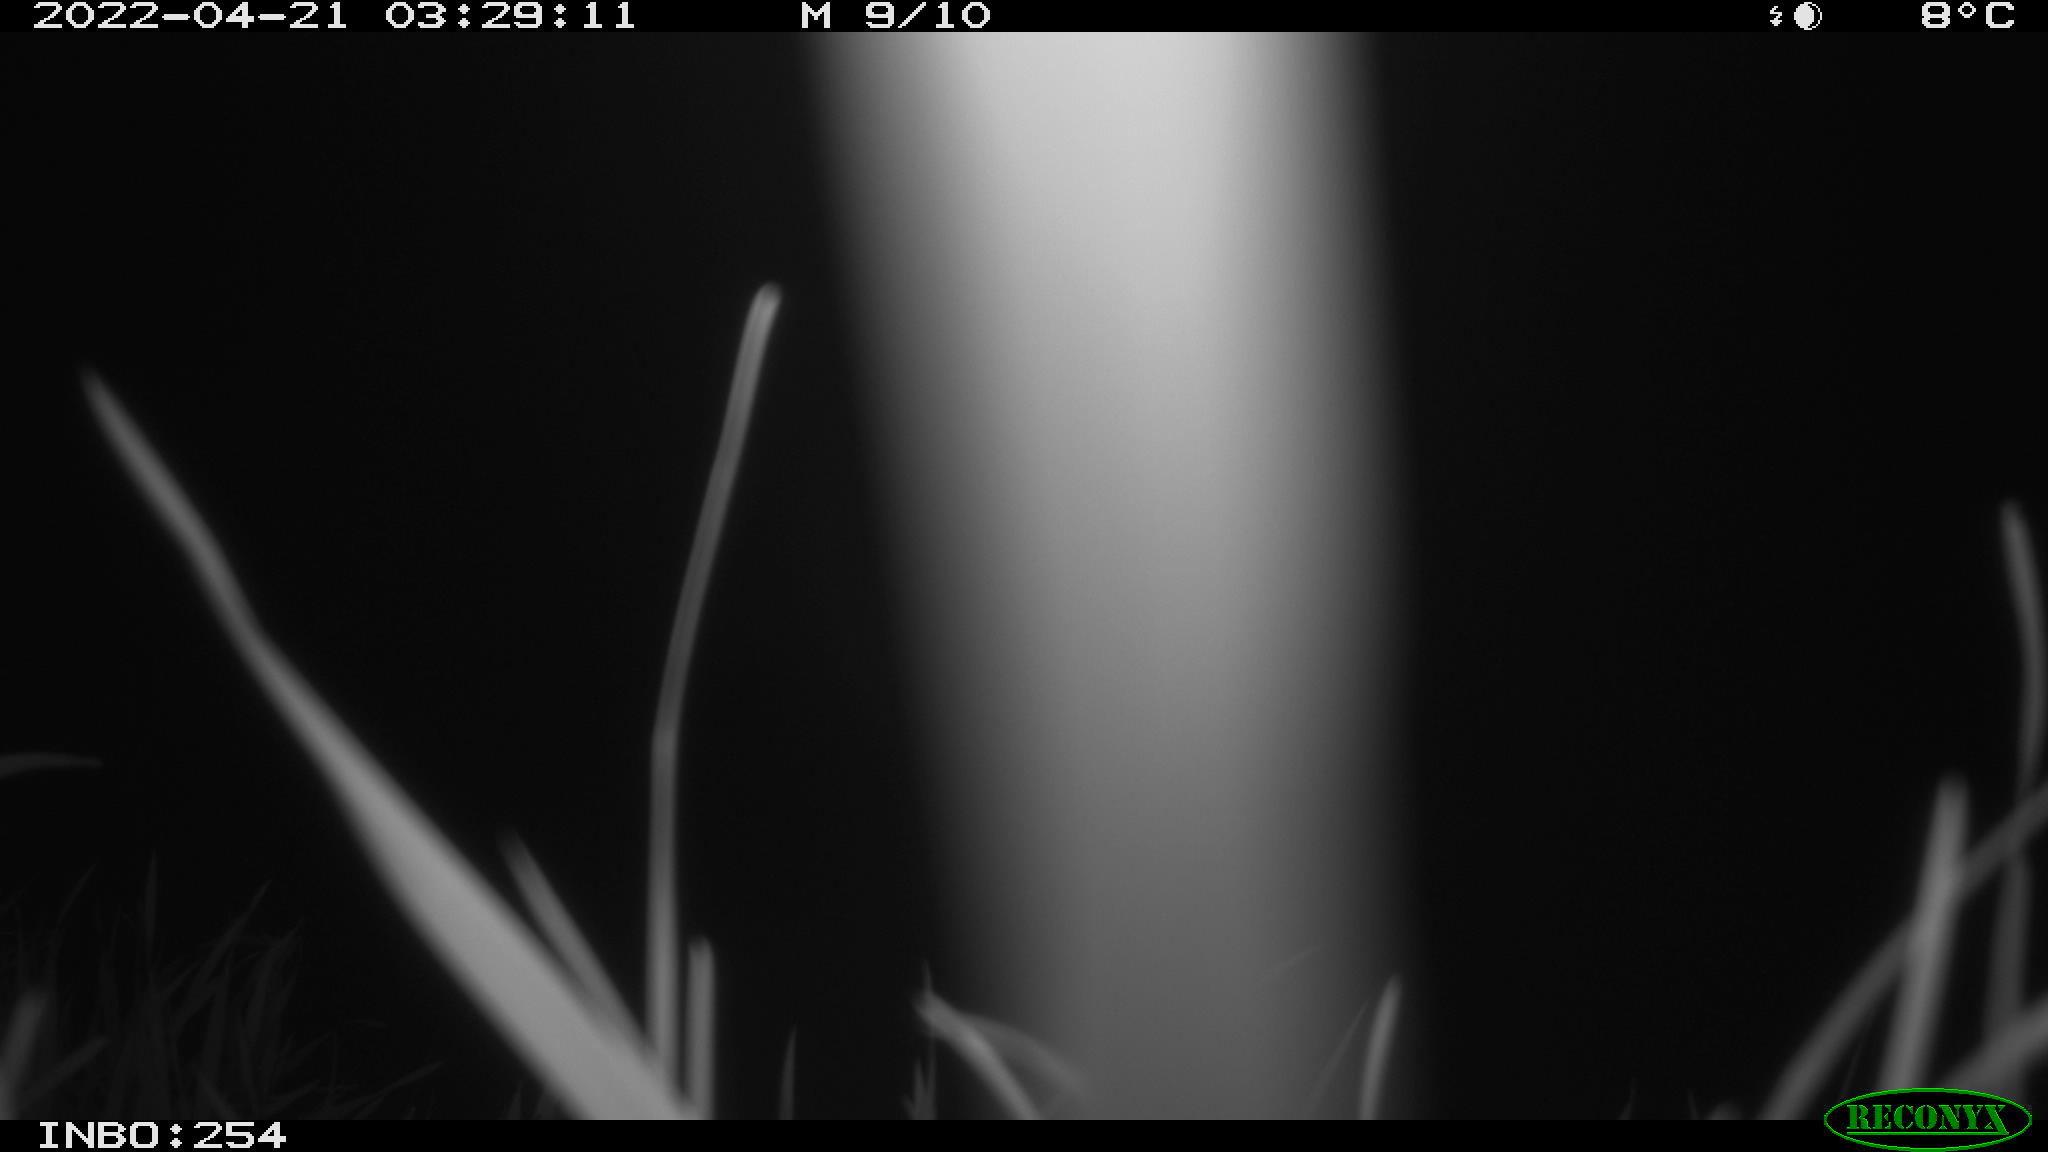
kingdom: Animalia
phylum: Chordata
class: Aves
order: Anseriformes
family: Anatidae
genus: Anas
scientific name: Anas platyrhynchos
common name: Mallard
